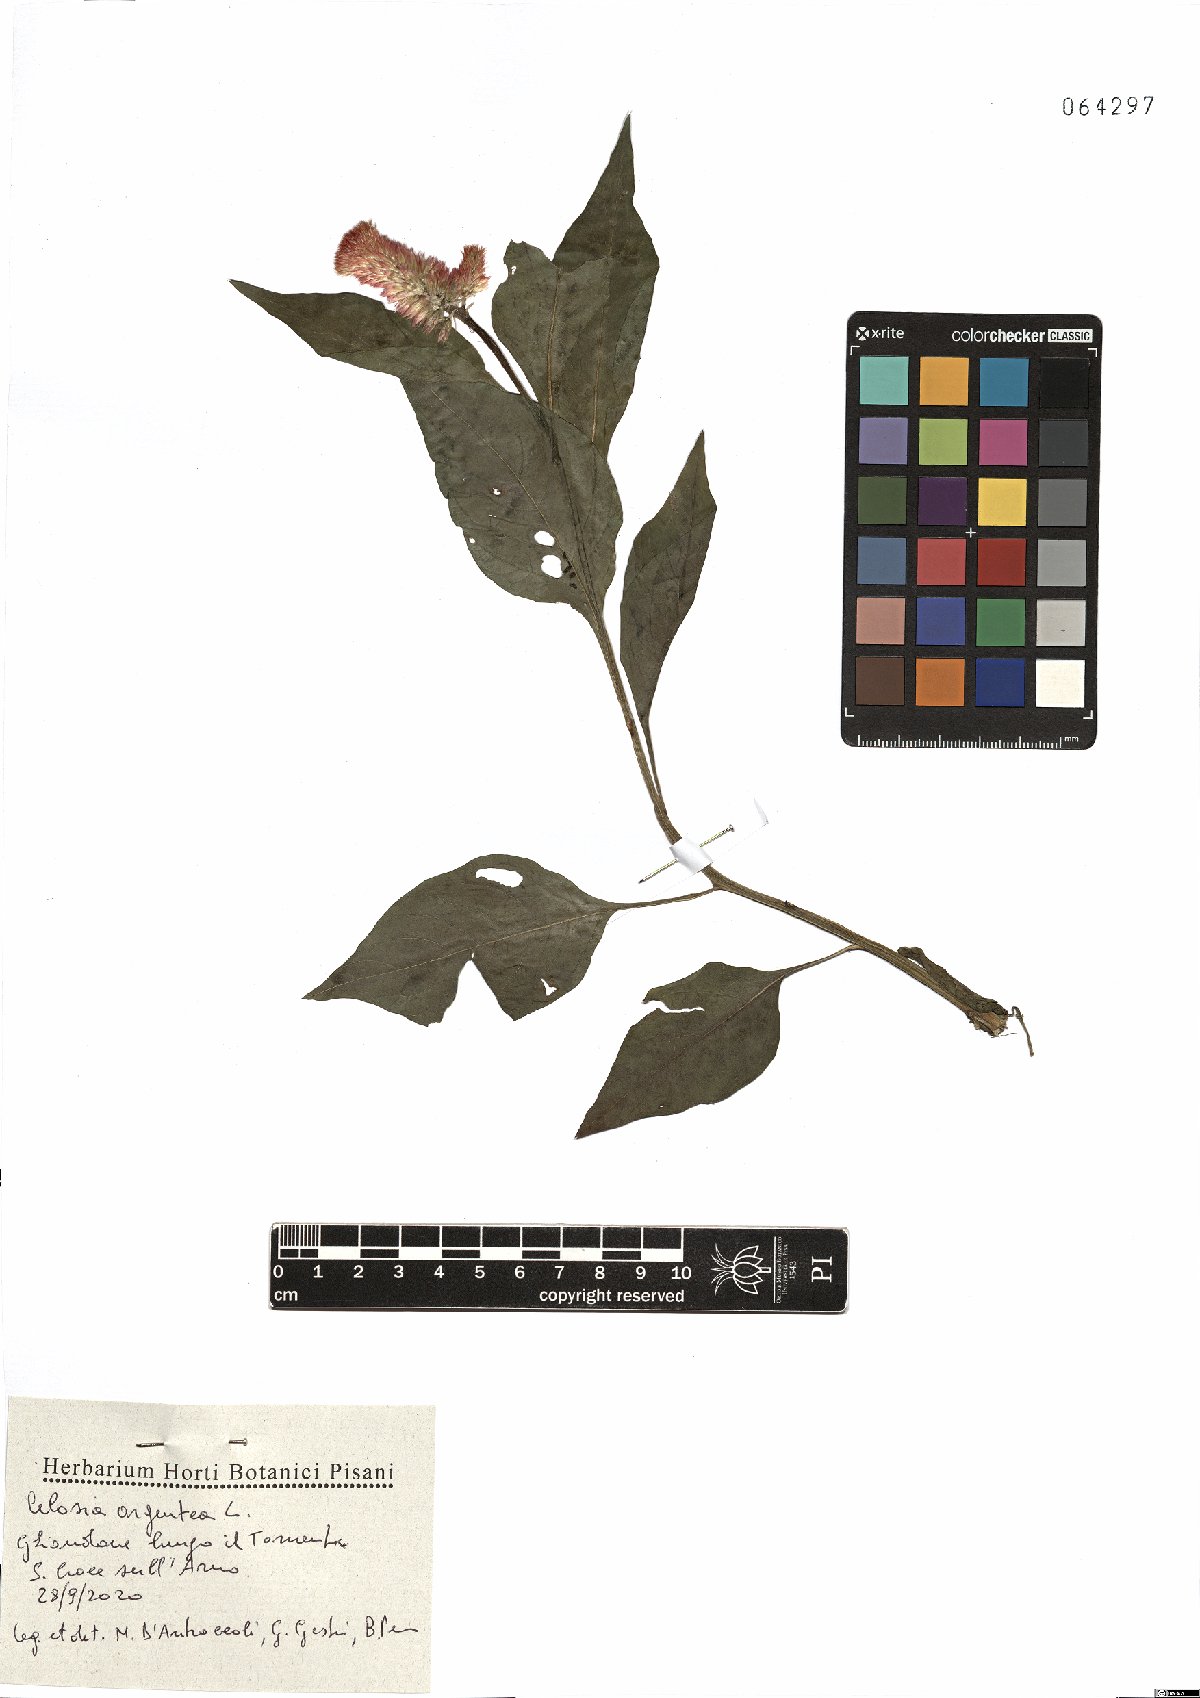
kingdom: Plantae
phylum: Tracheophyta
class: Magnoliopsida
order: Caryophyllales
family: Amaranthaceae
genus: Celosia
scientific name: Celosia argentea
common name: Feather cockscomb
